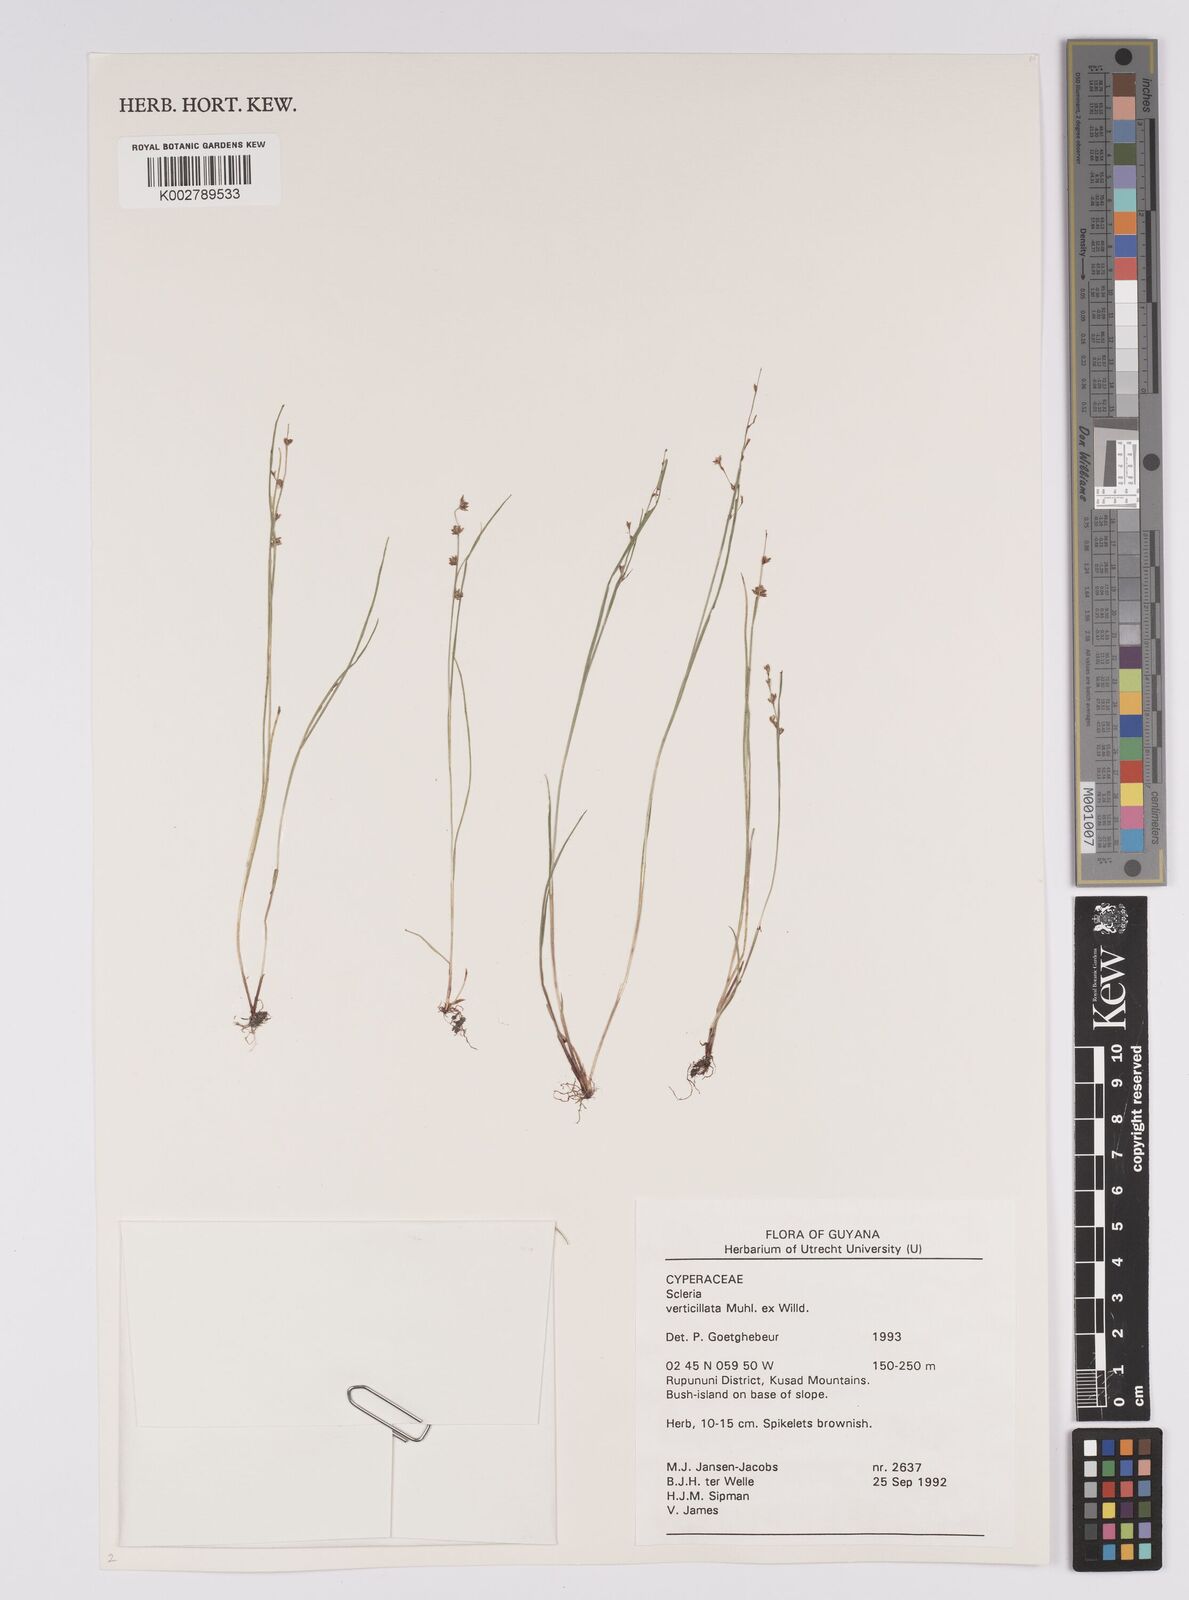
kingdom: Plantae
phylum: Tracheophyta
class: Liliopsida
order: Poales
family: Cyperaceae
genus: Scleria
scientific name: Scleria verticillata
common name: Low nutrush
